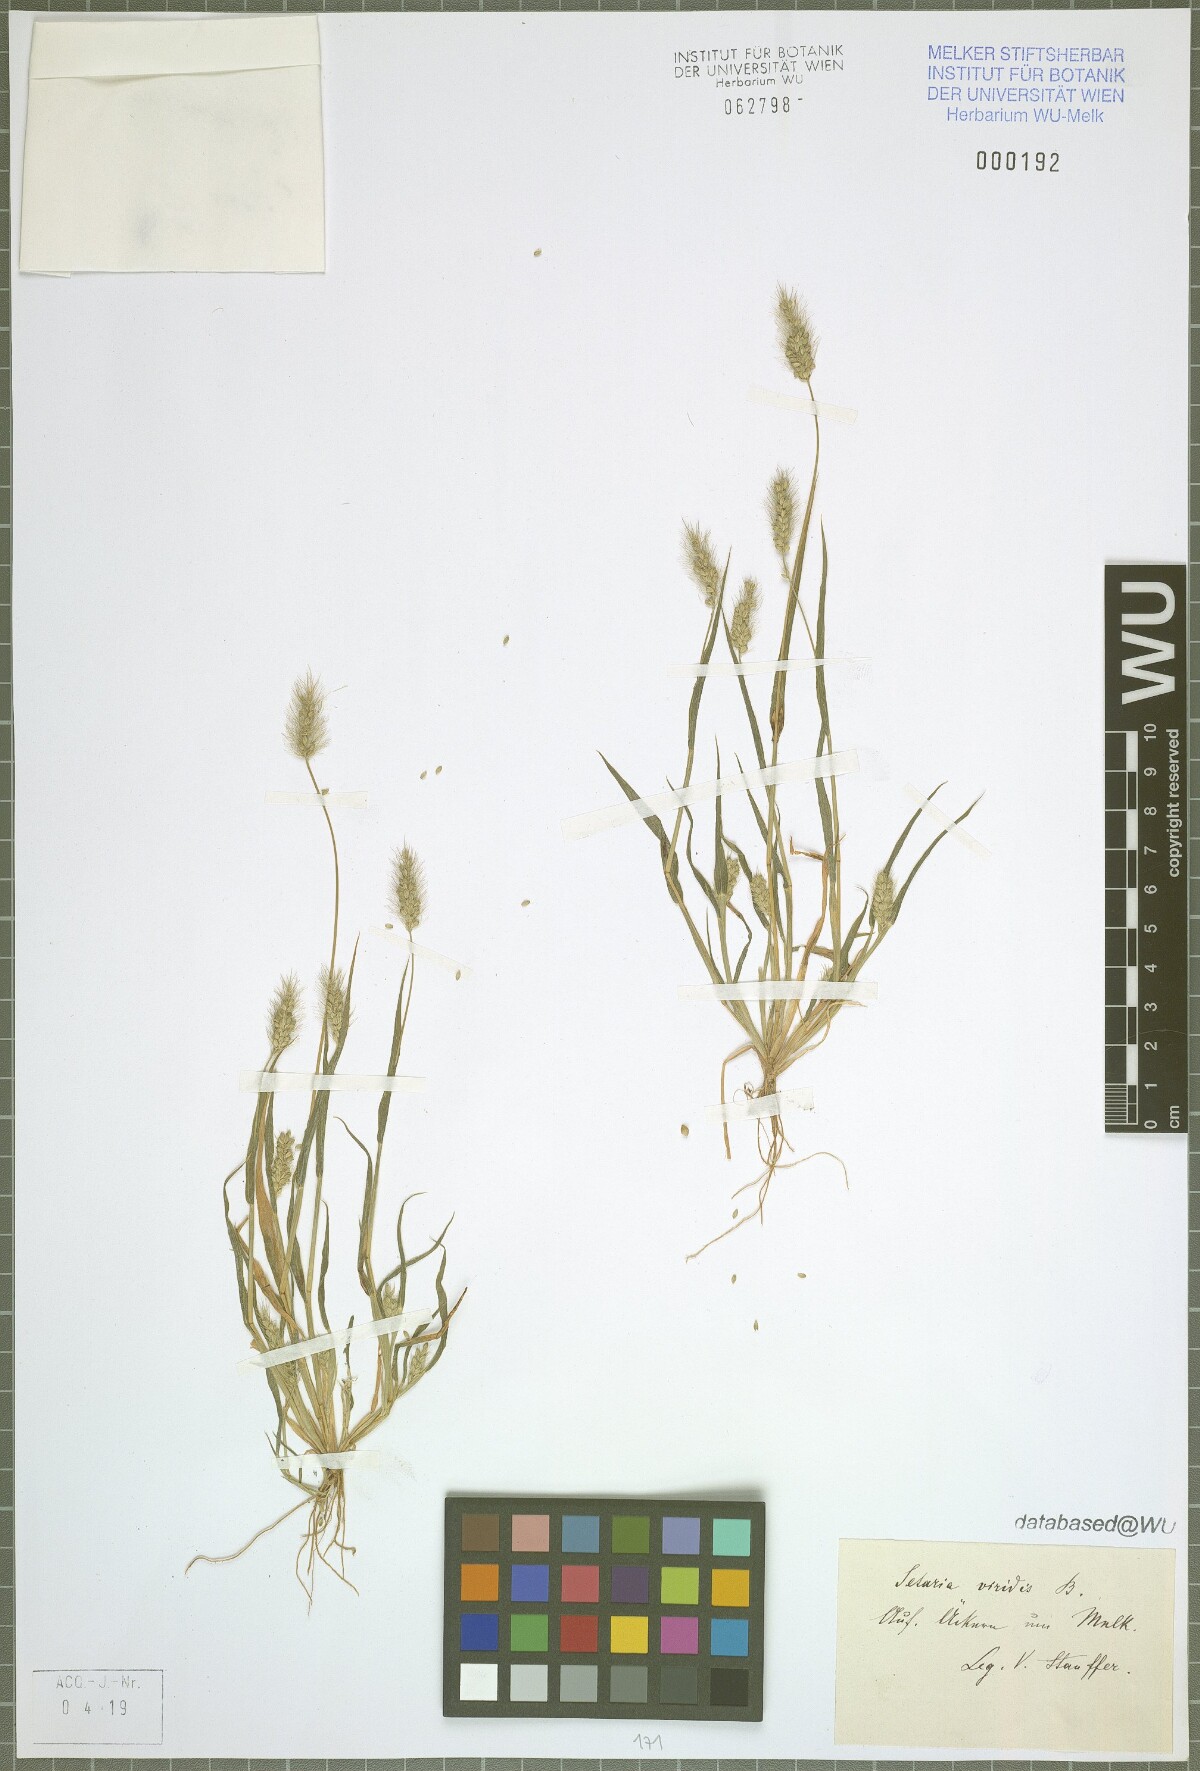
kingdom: Plantae
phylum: Tracheophyta
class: Liliopsida
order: Poales
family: Poaceae
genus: Setaria
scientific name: Setaria viridis
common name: Green bristlegrass
